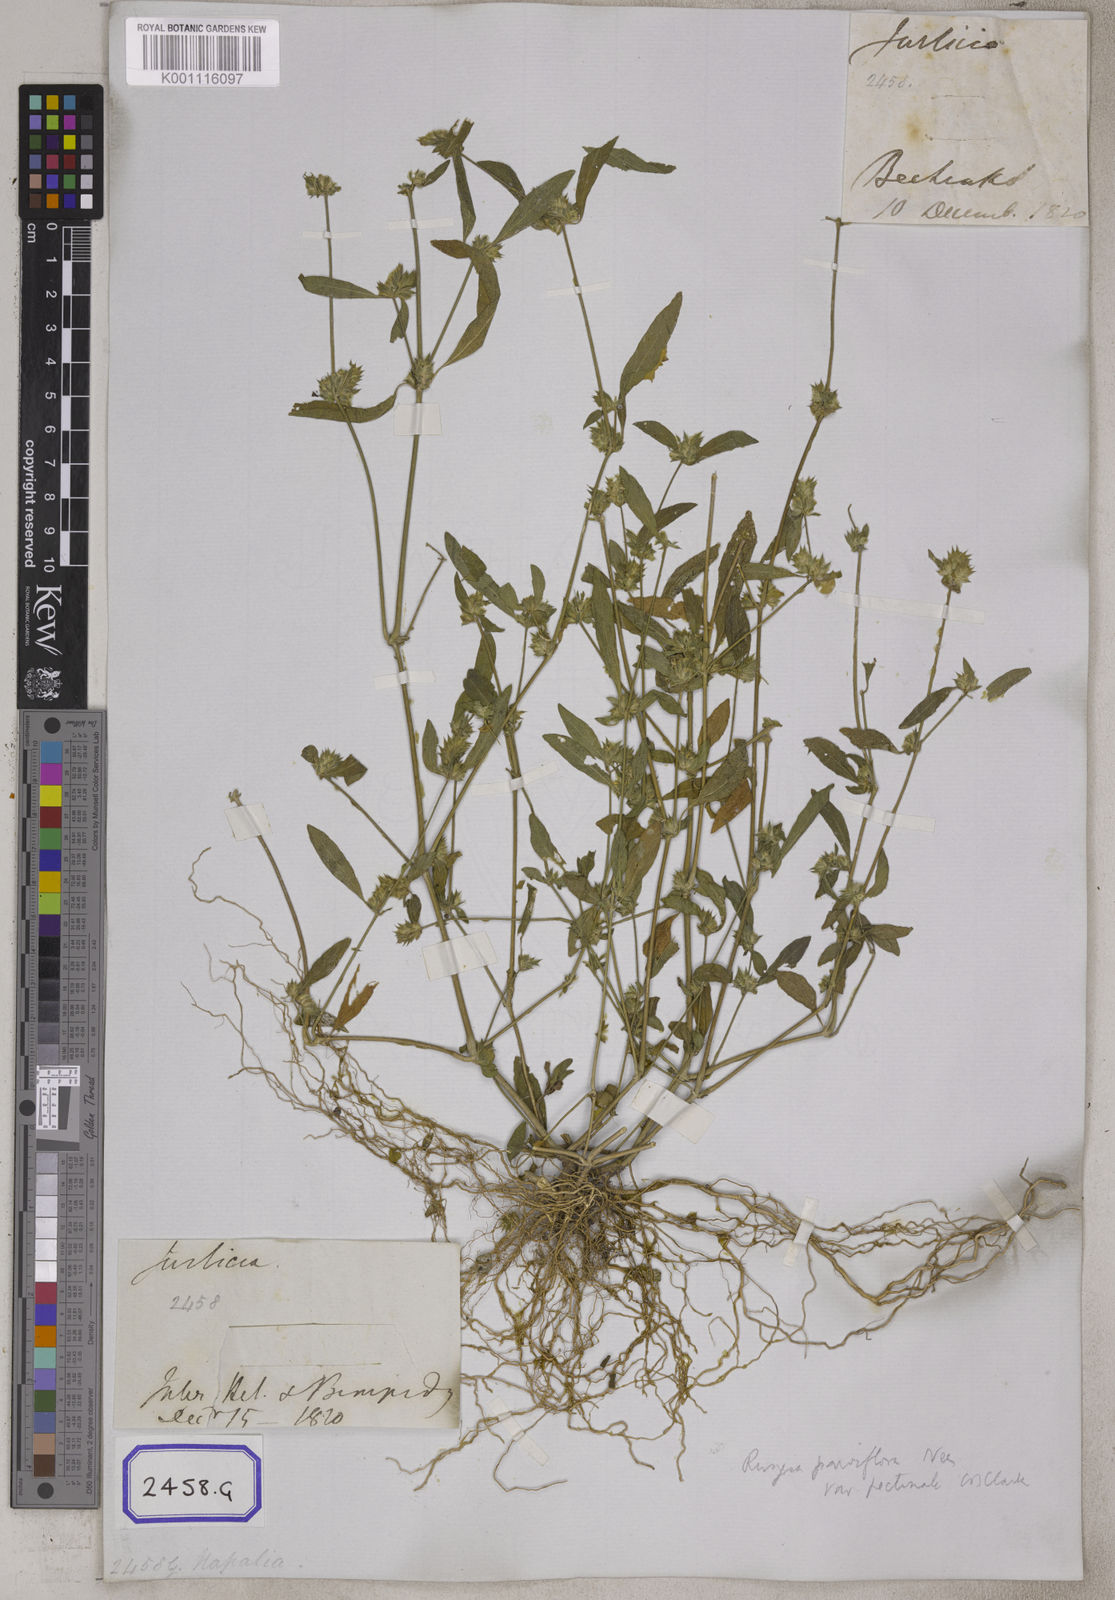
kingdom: Plantae
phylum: Tracheophyta
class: Magnoliopsida
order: Lamiales
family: Acanthaceae
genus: Rungia
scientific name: Rungia pectinata
